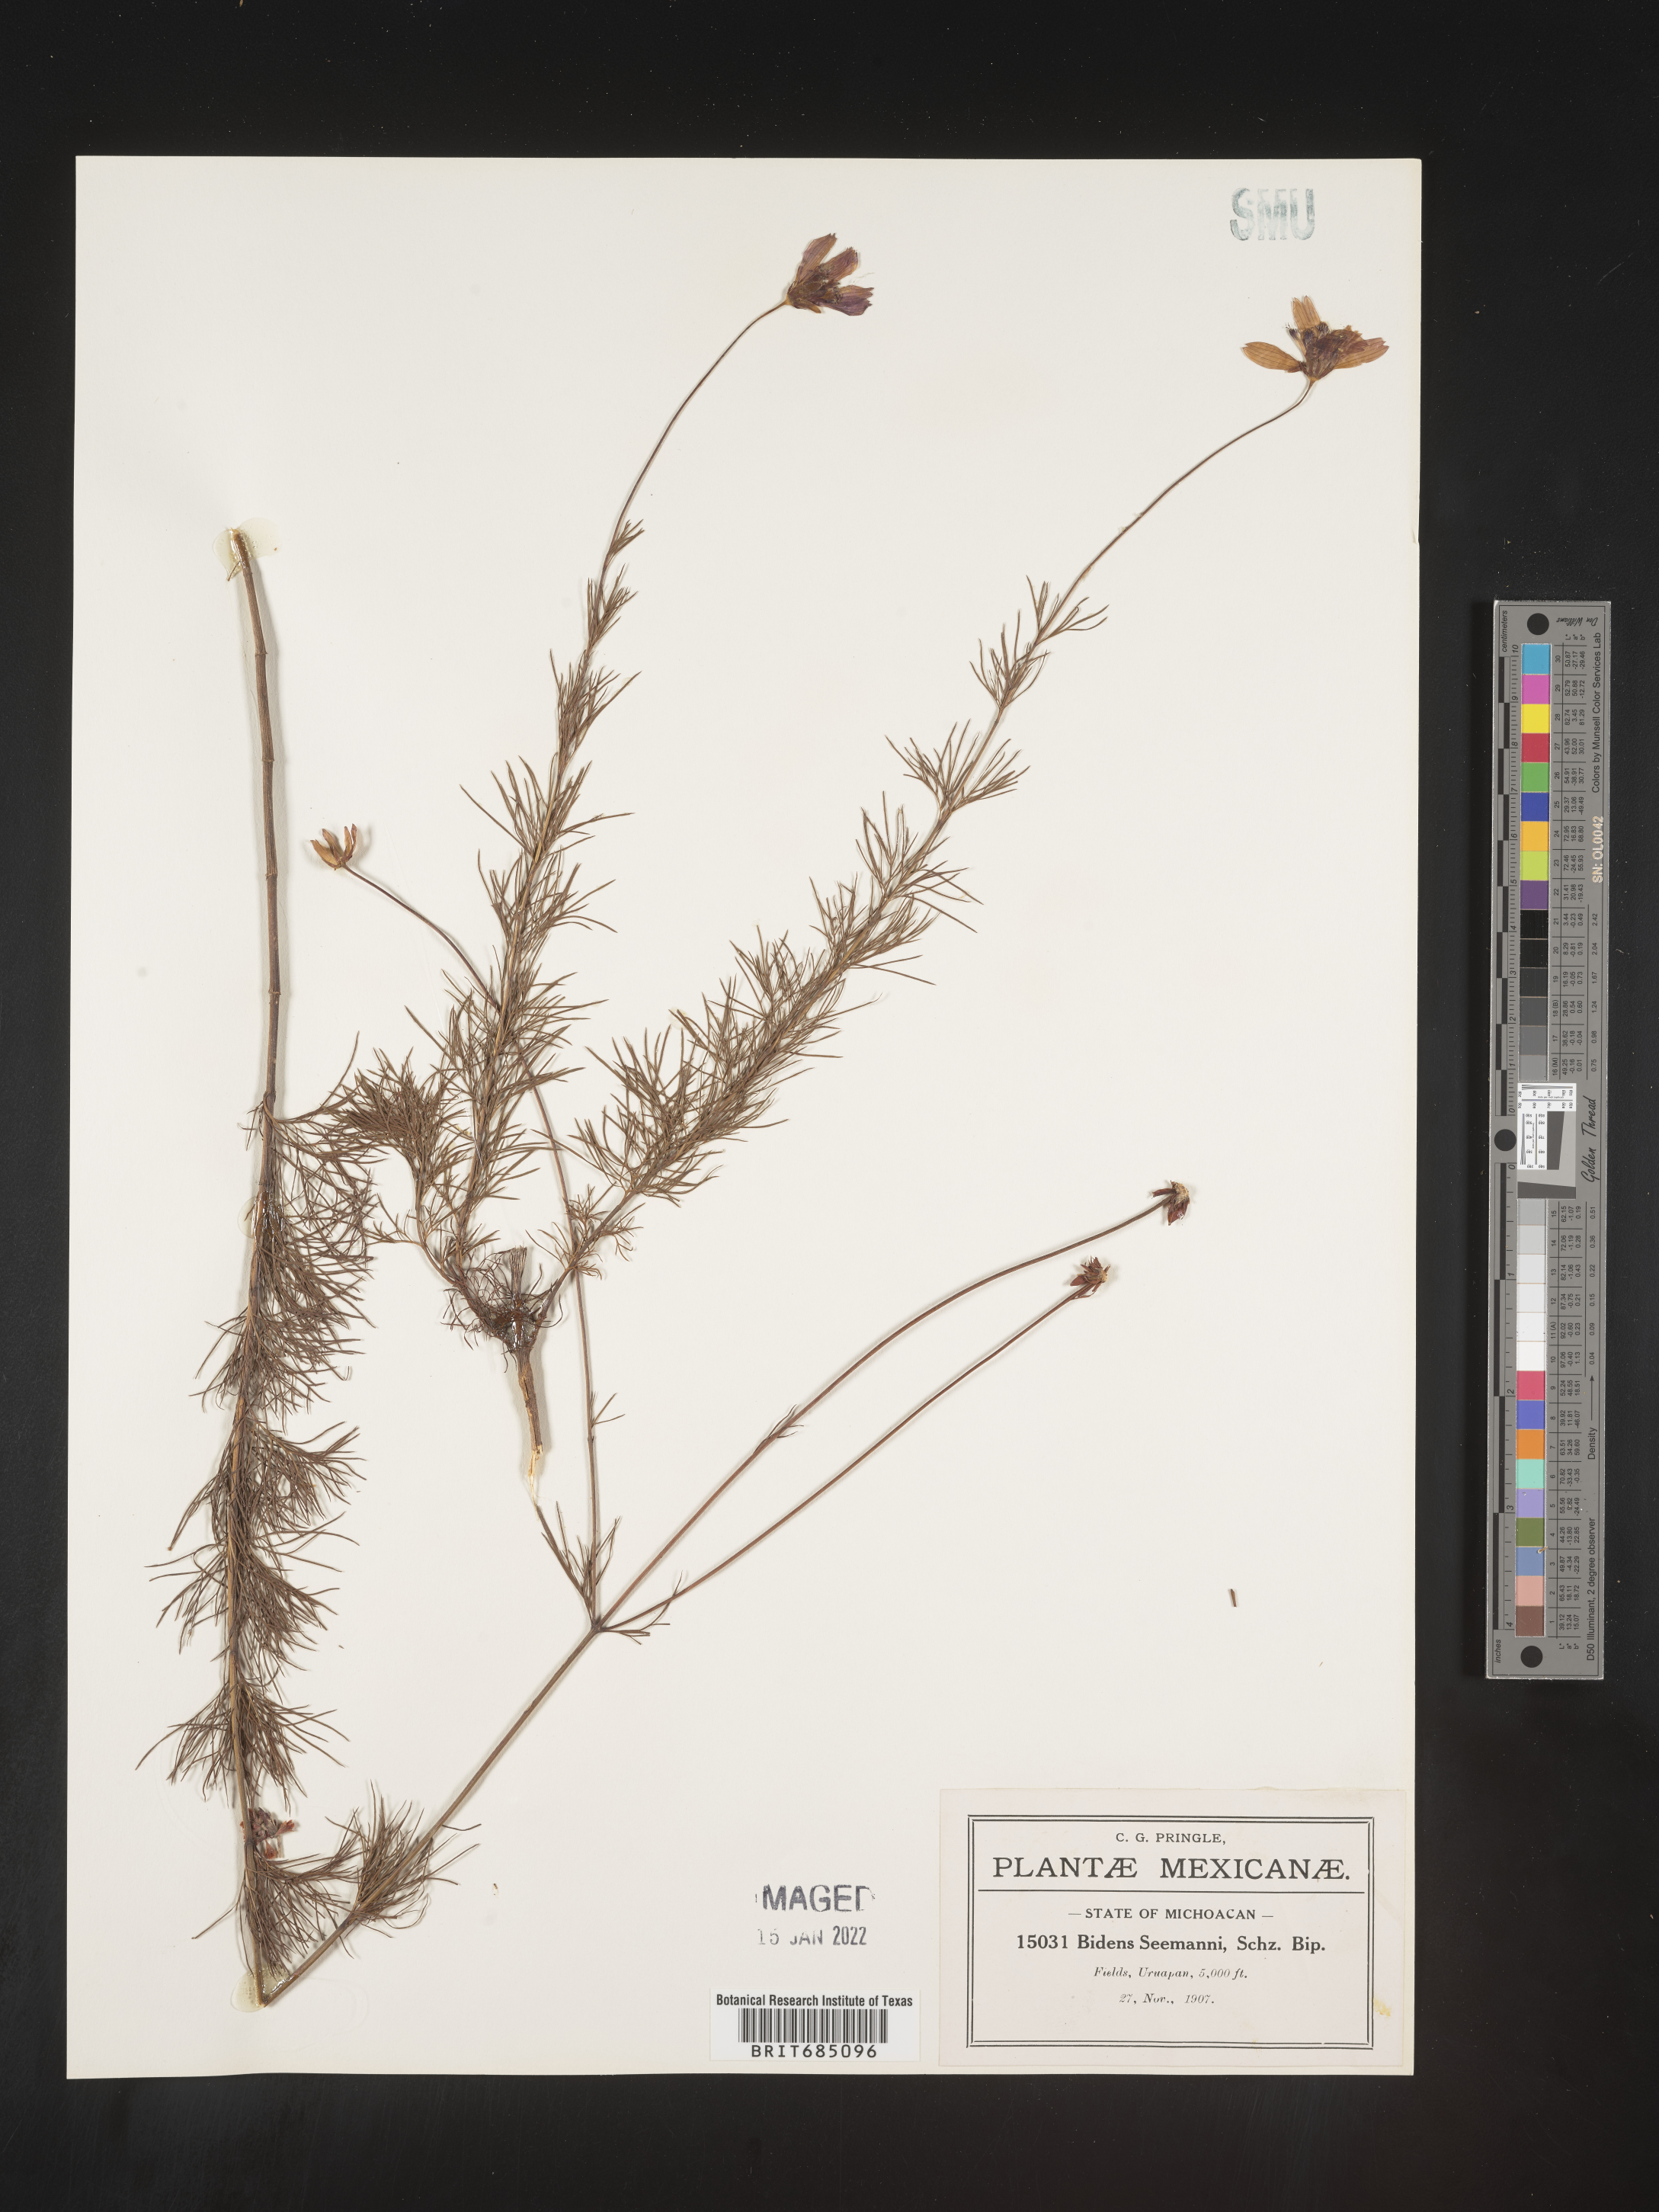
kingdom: Plantae
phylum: Tracheophyta
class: Magnoliopsida
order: Asterales
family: Asteraceae
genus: Bidens
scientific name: Bidens
